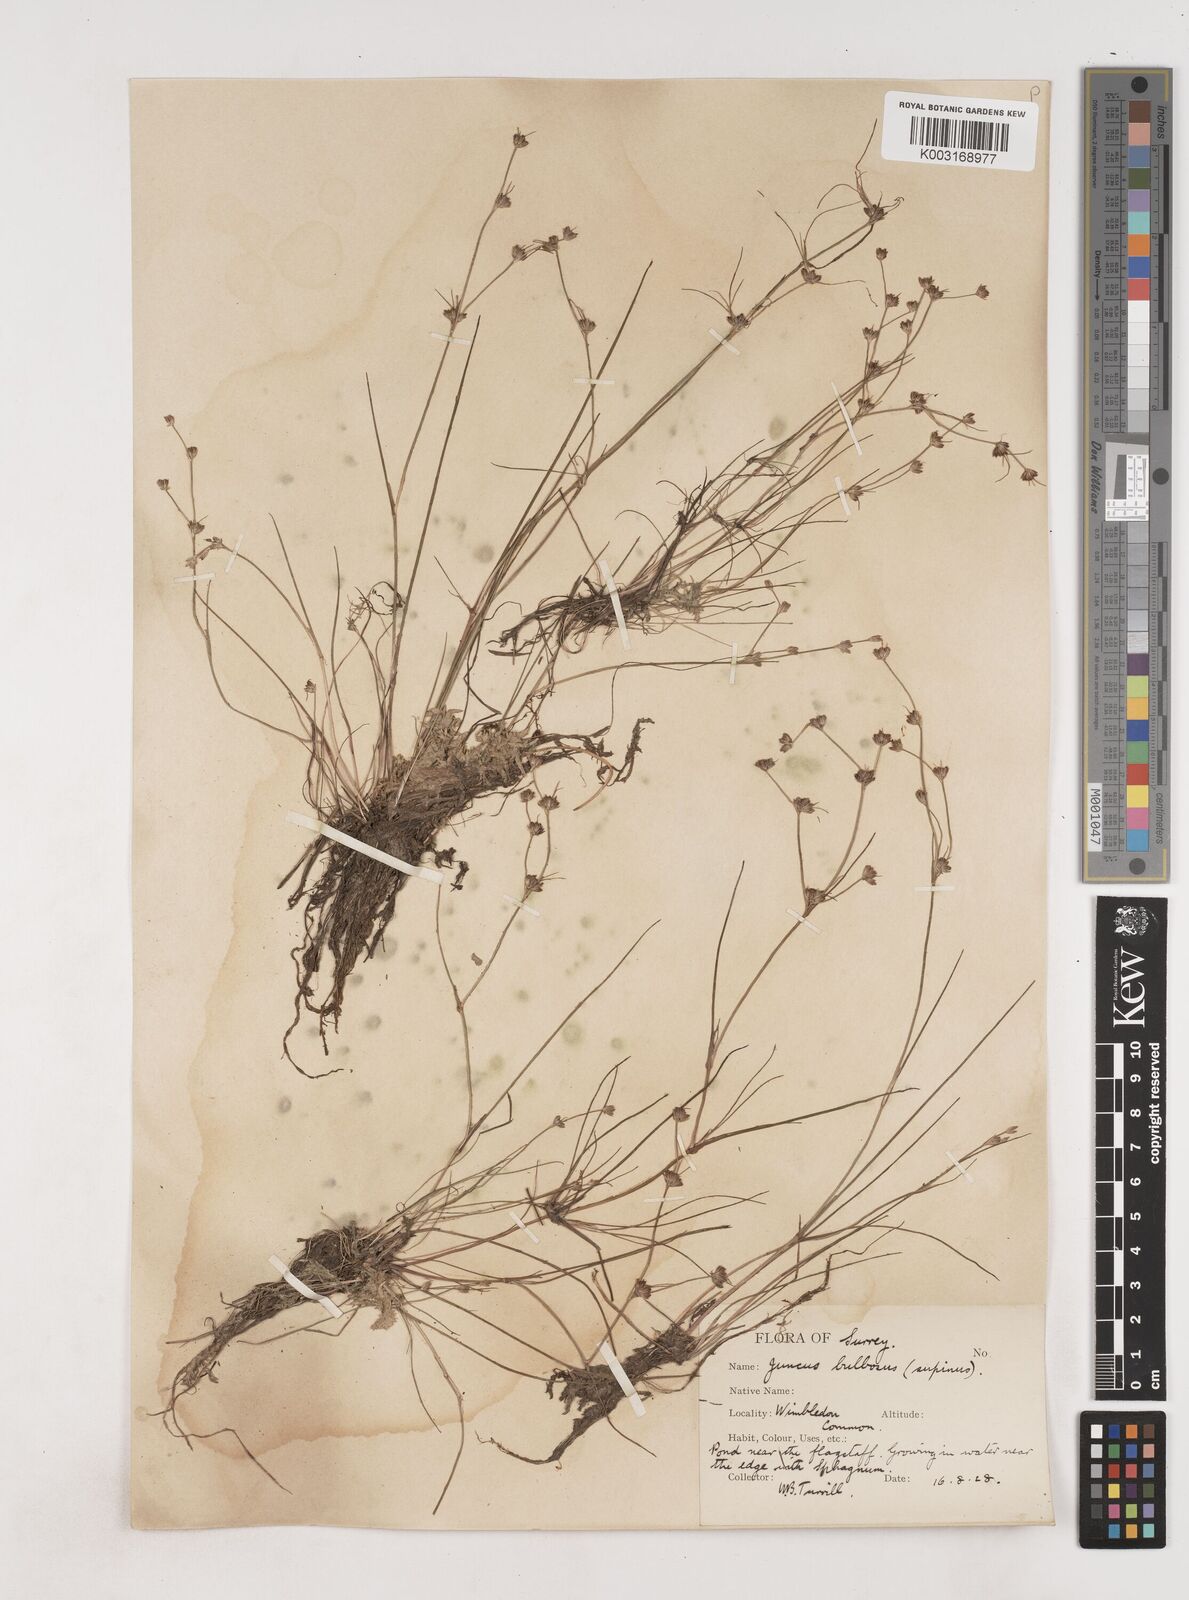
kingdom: Plantae
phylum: Tracheophyta
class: Liliopsida
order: Poales
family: Juncaceae
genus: Juncus
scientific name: Juncus bulbosus
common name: Bulbous rush
